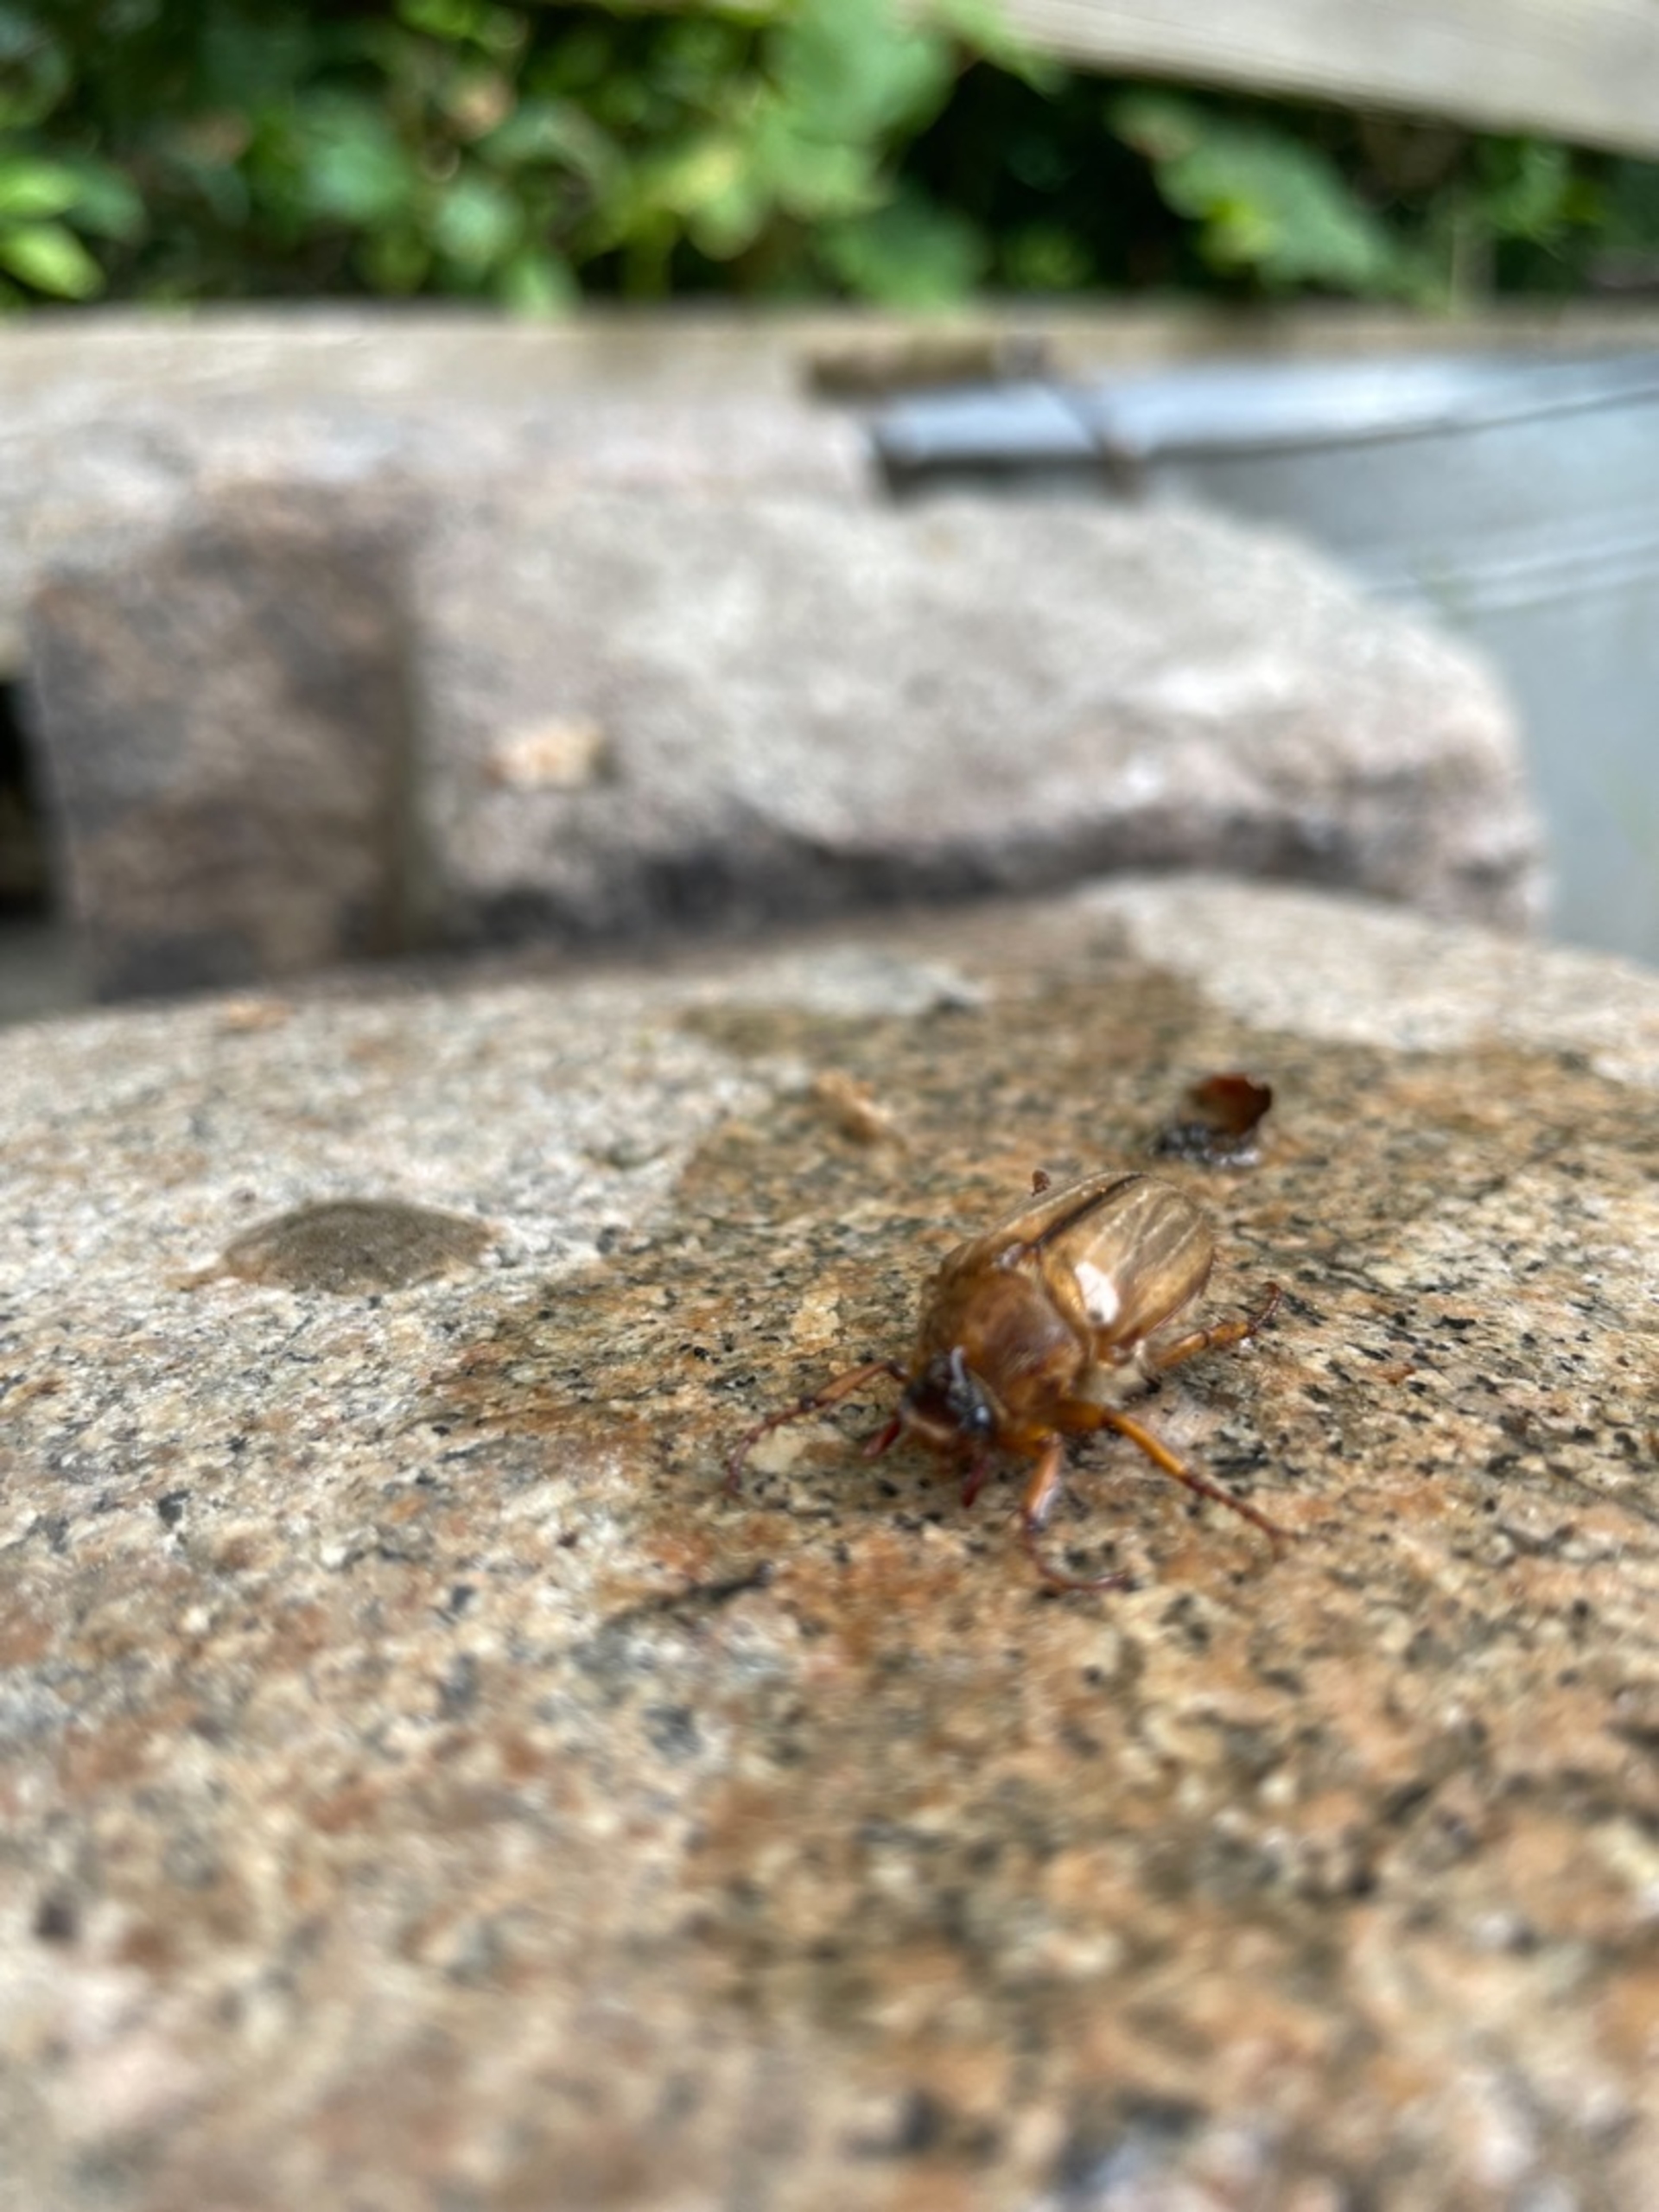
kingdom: Animalia
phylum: Arthropoda
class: Insecta
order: Coleoptera
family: Scarabaeidae
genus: Amphimallon
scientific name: Amphimallon solstitiale
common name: Sankthansoldenborre
